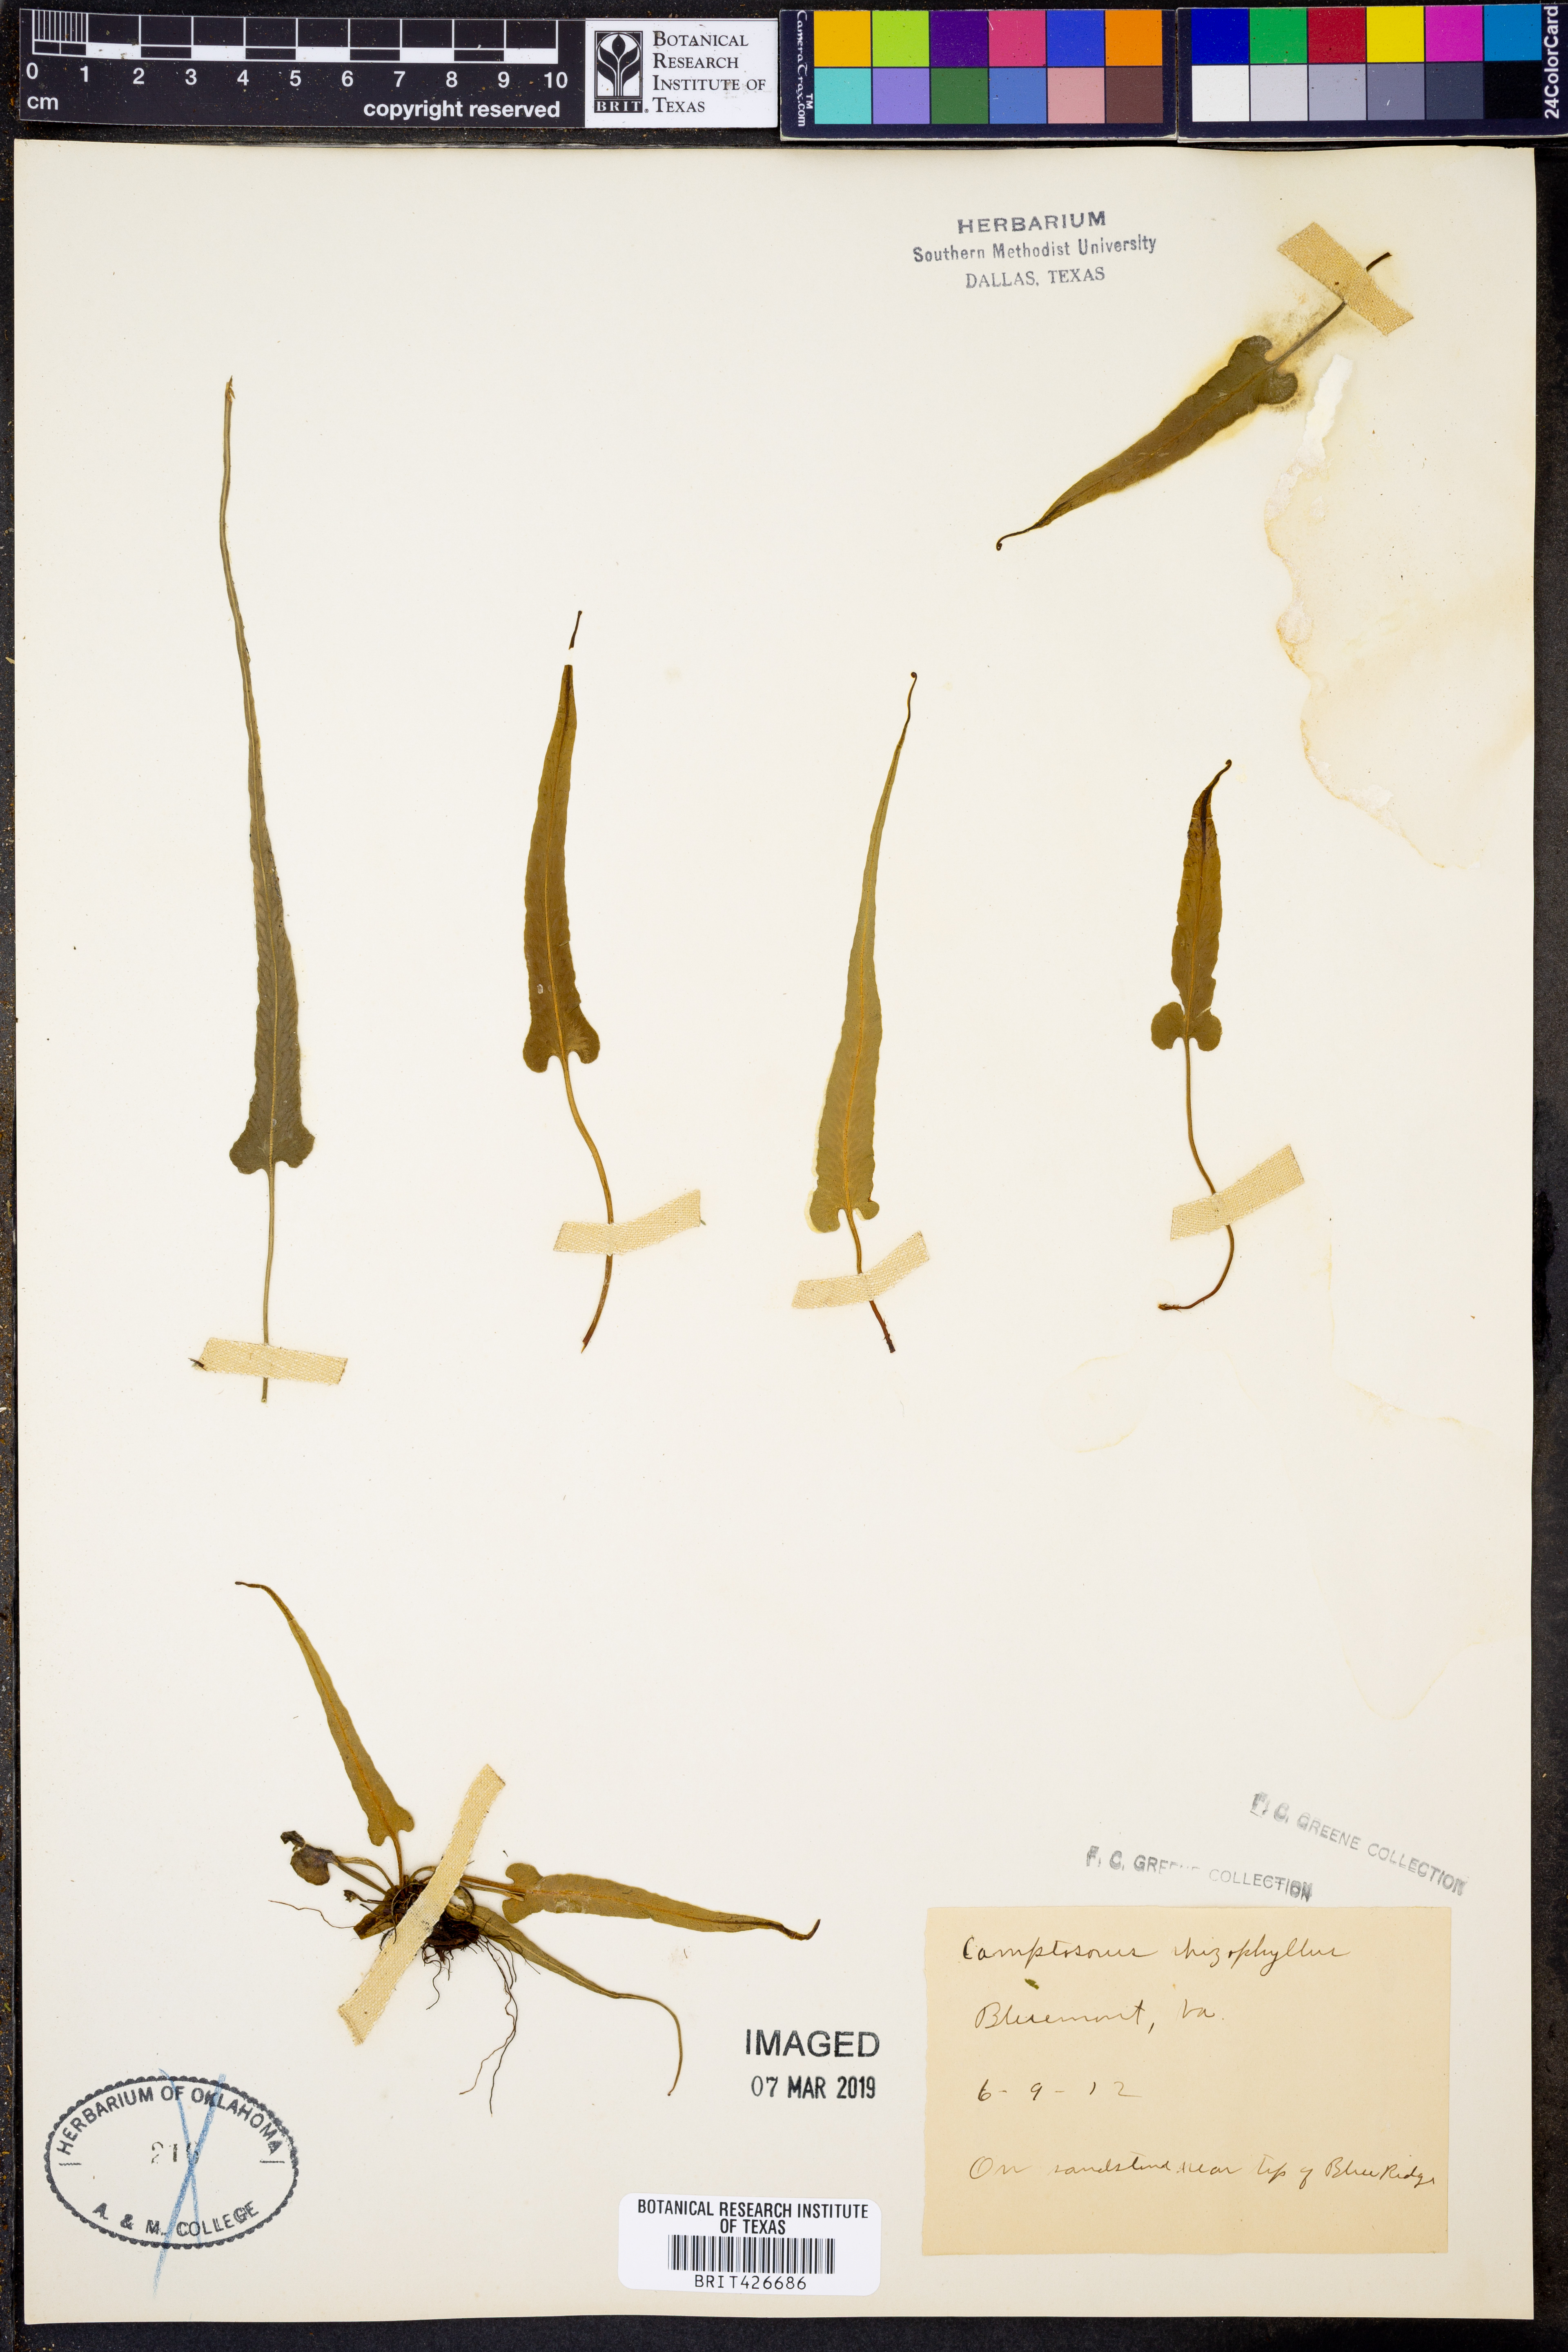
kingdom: Plantae
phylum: Tracheophyta
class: Polypodiopsida
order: Polypodiales
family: Aspleniaceae
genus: Asplenium
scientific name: Asplenium rhizophyllum
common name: Walking fern
